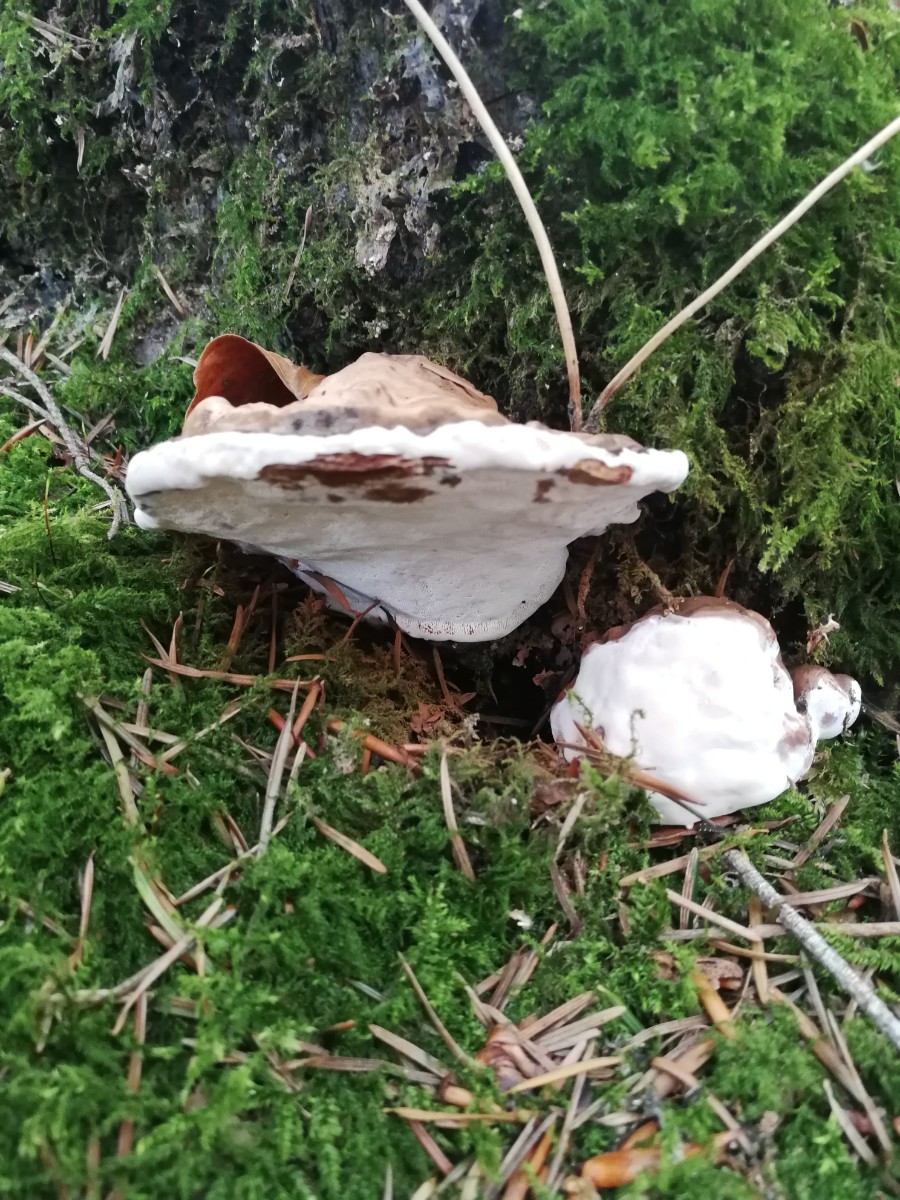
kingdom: Fungi
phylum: Basidiomycota
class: Agaricomycetes
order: Polyporales
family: Polyporaceae
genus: Ganoderma
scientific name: Ganoderma
